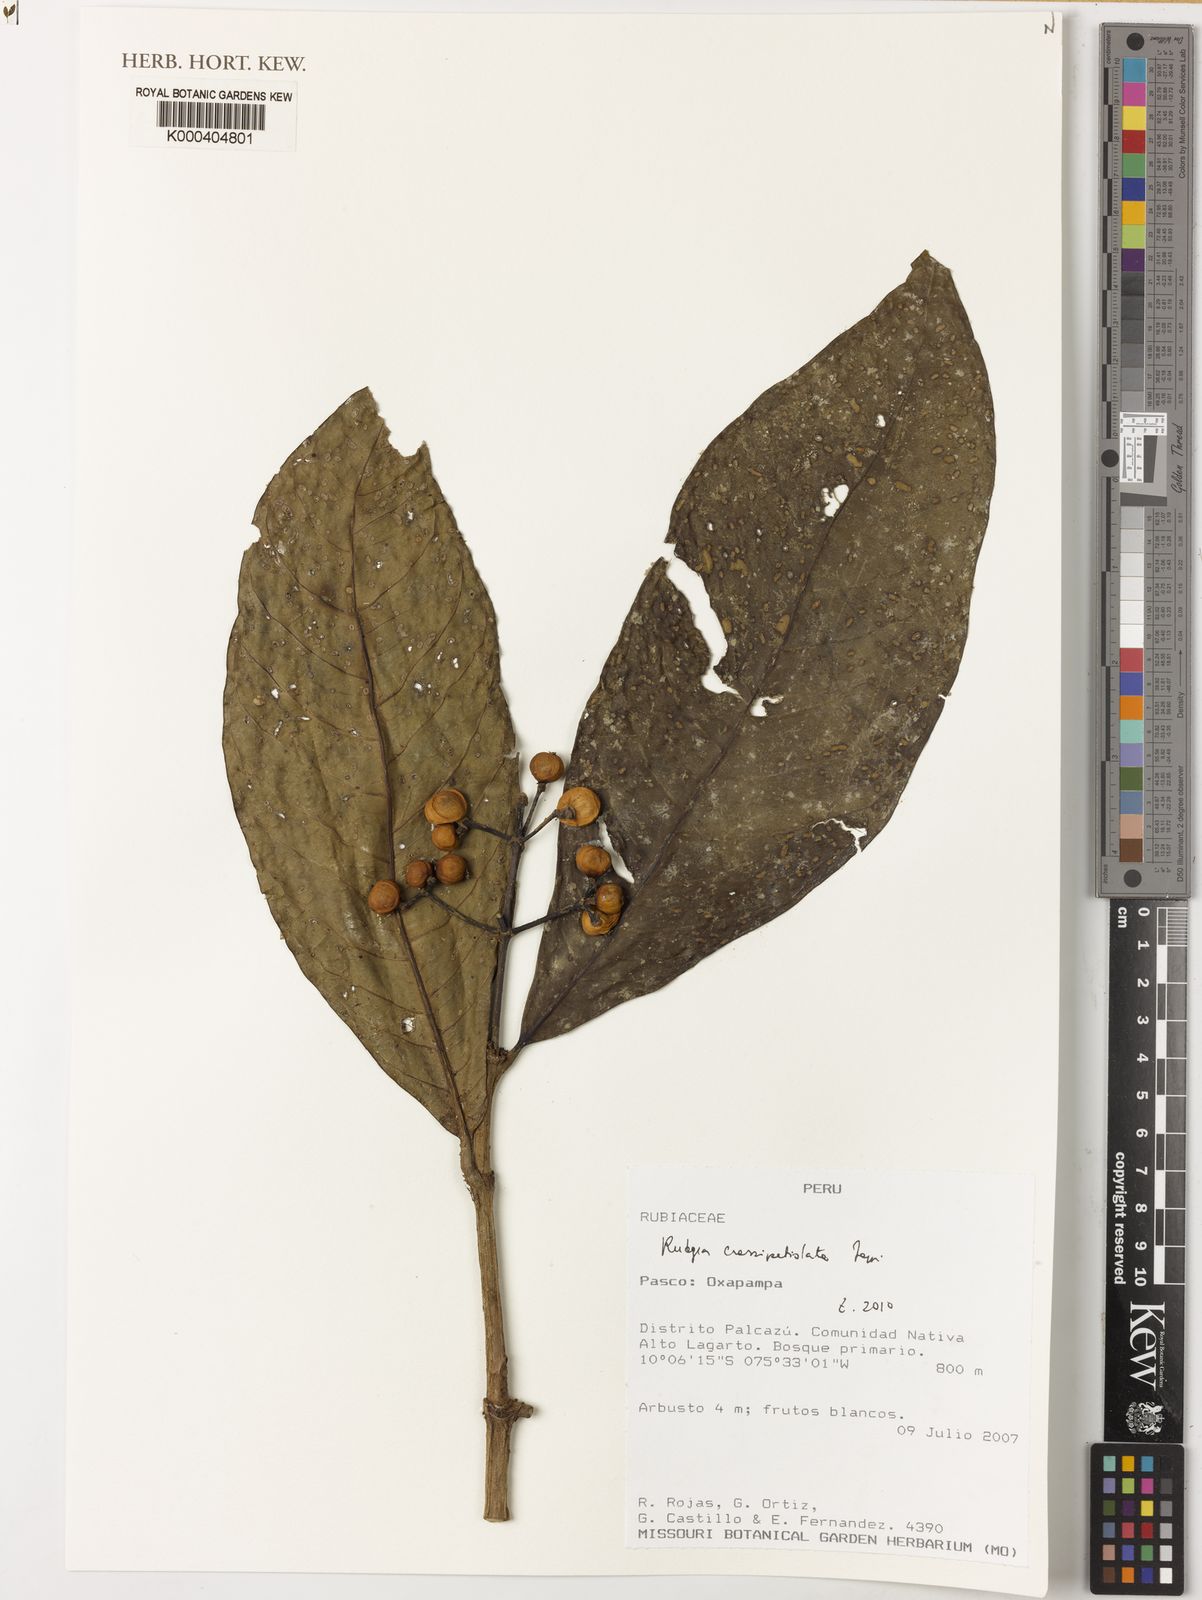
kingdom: Plantae
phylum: Tracheophyta
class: Magnoliopsida
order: Gentianales
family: Rubiaceae
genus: Rudgea
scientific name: Rudgea verticillata
